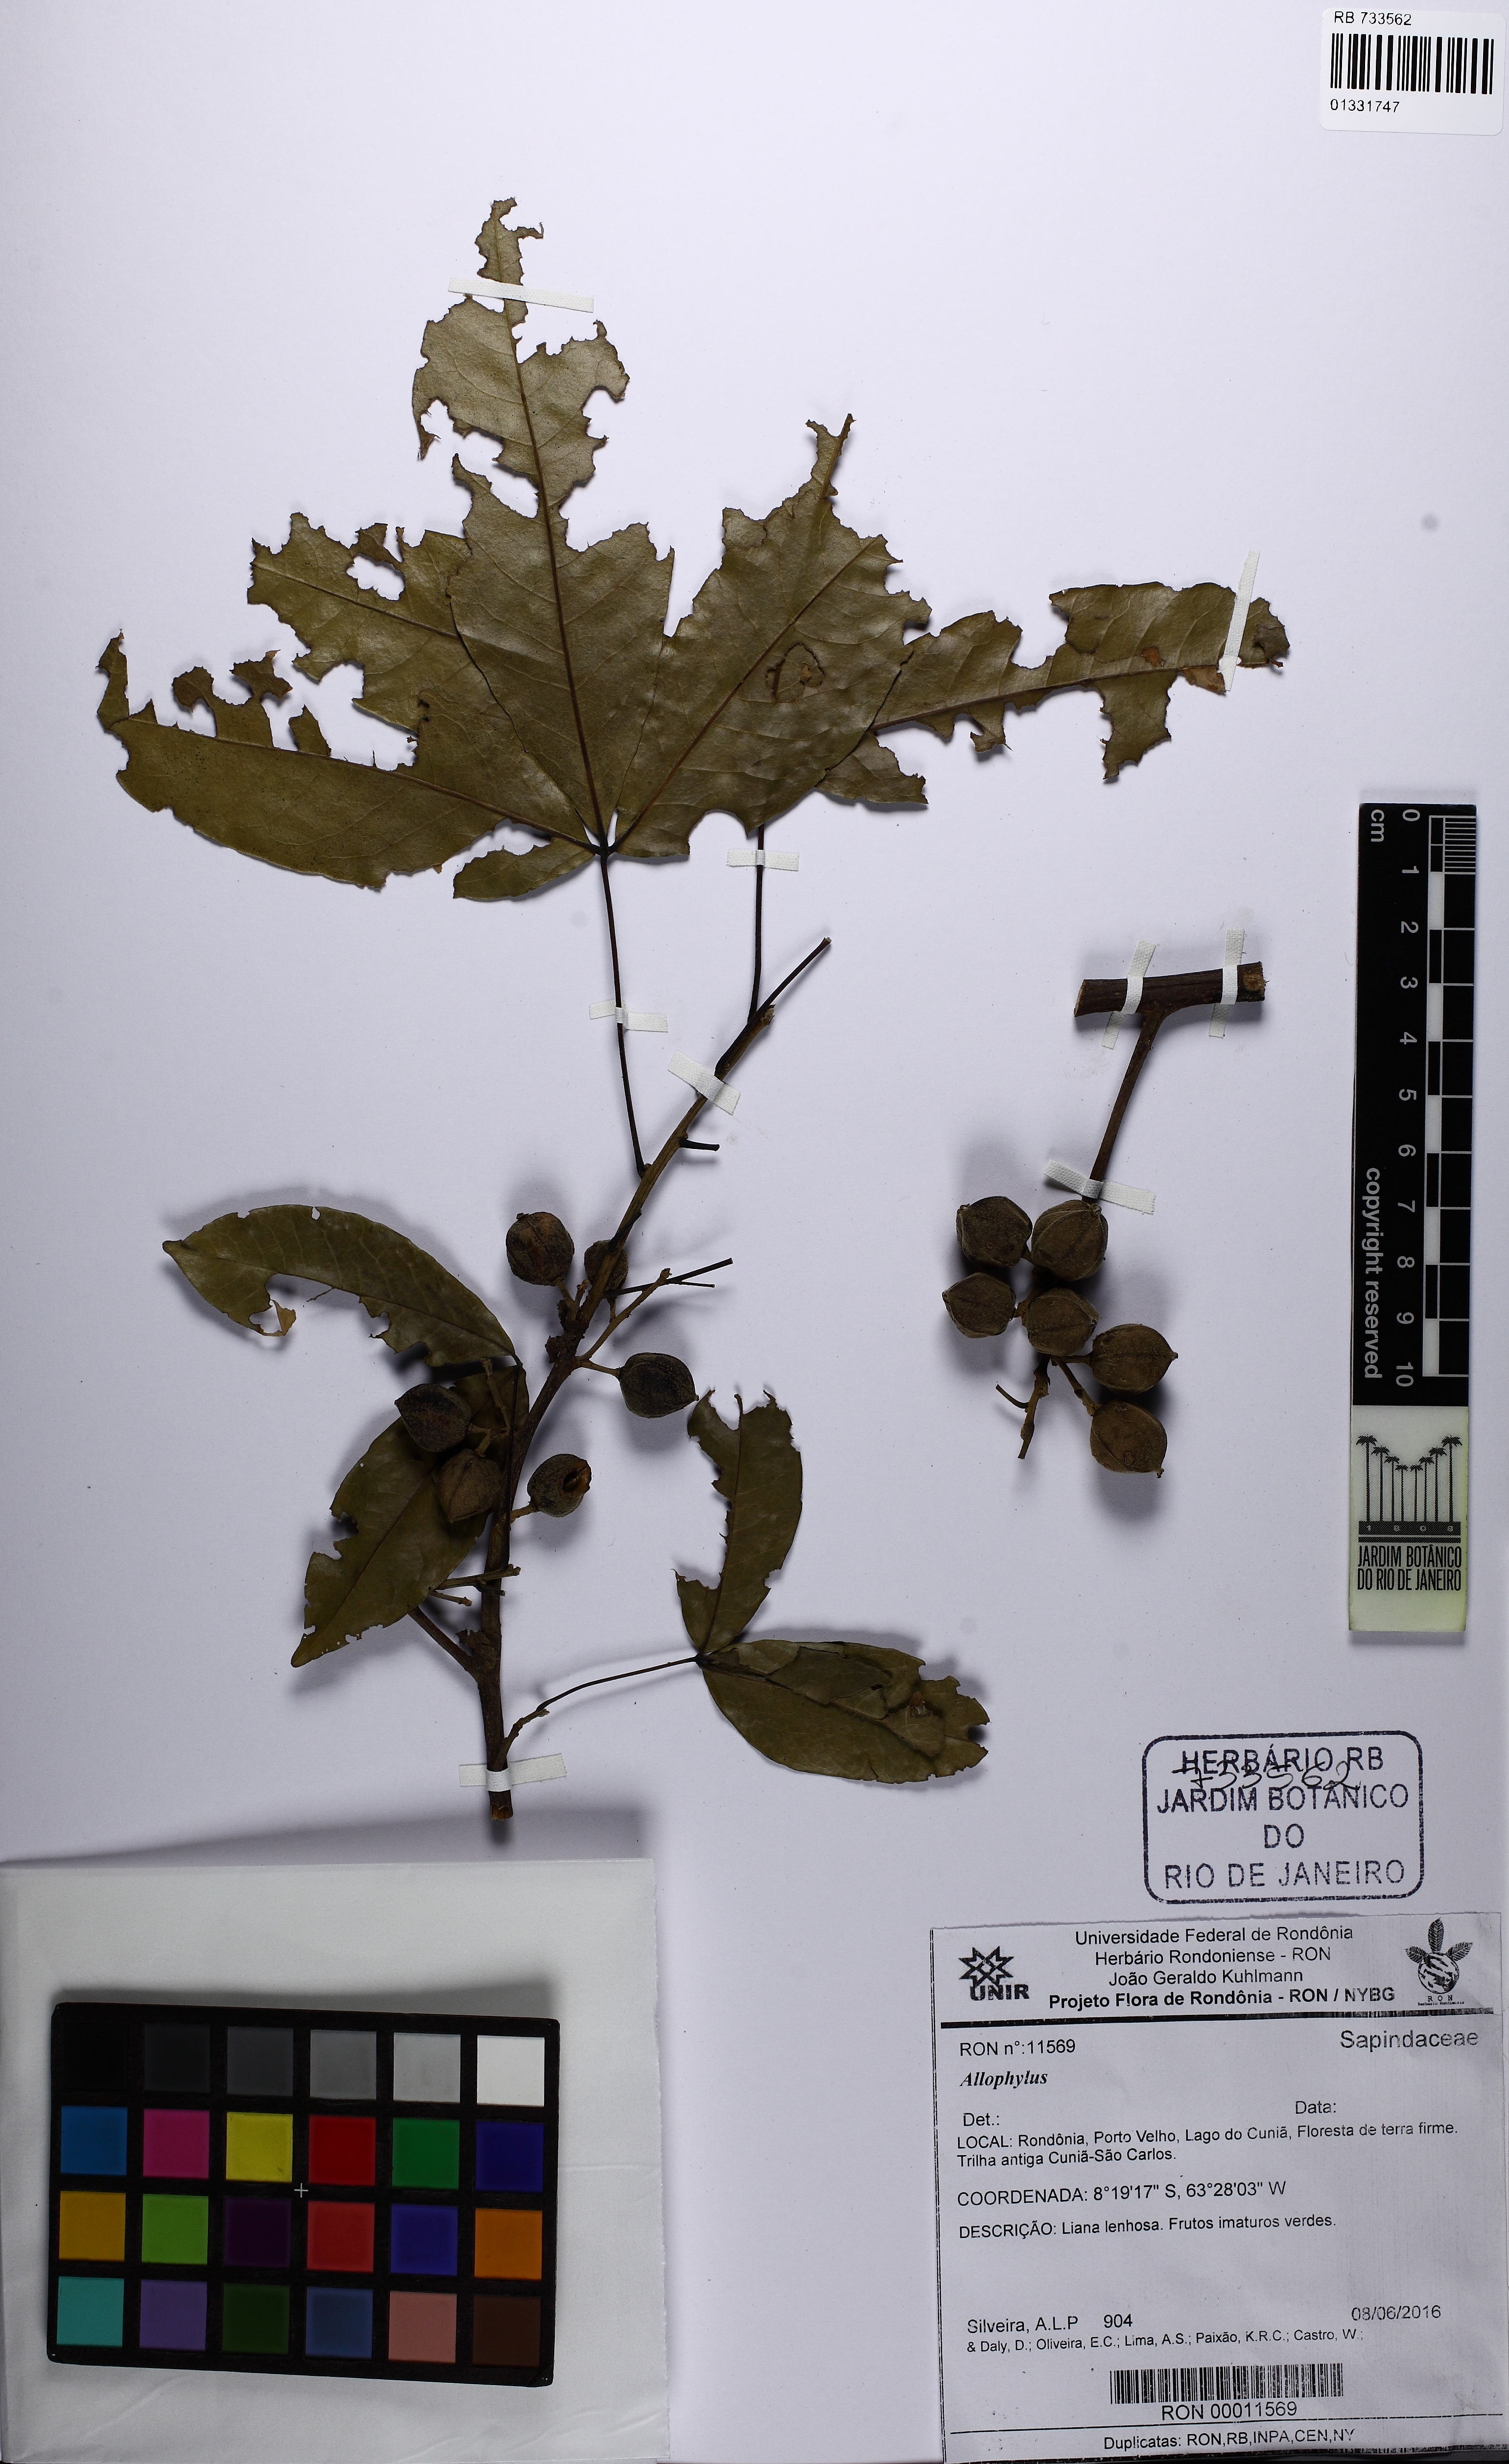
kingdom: Plantae
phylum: Tracheophyta
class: Magnoliopsida
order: Sapindales
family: Sapindaceae
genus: Allophylus
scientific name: Allophylus
